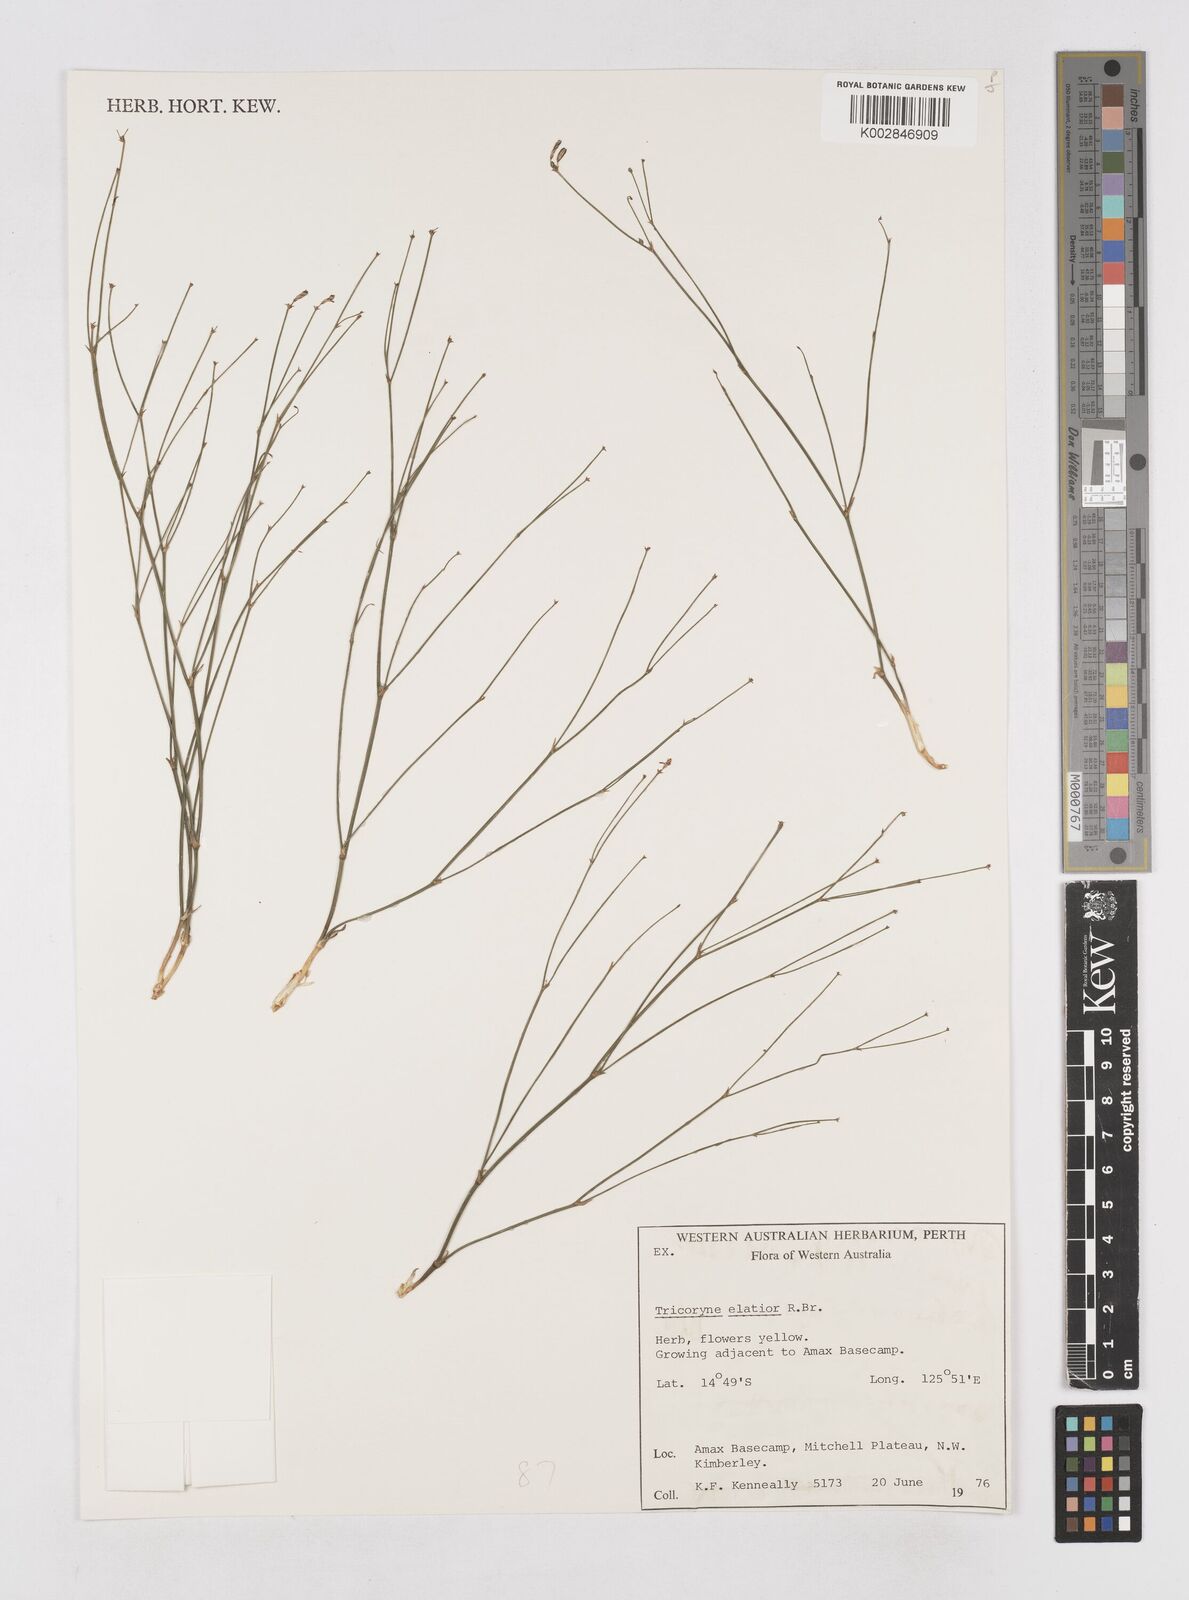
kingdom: Plantae
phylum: Tracheophyta
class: Liliopsida
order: Asparagales
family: Asphodelaceae
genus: Tricoryne
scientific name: Tricoryne elatior
